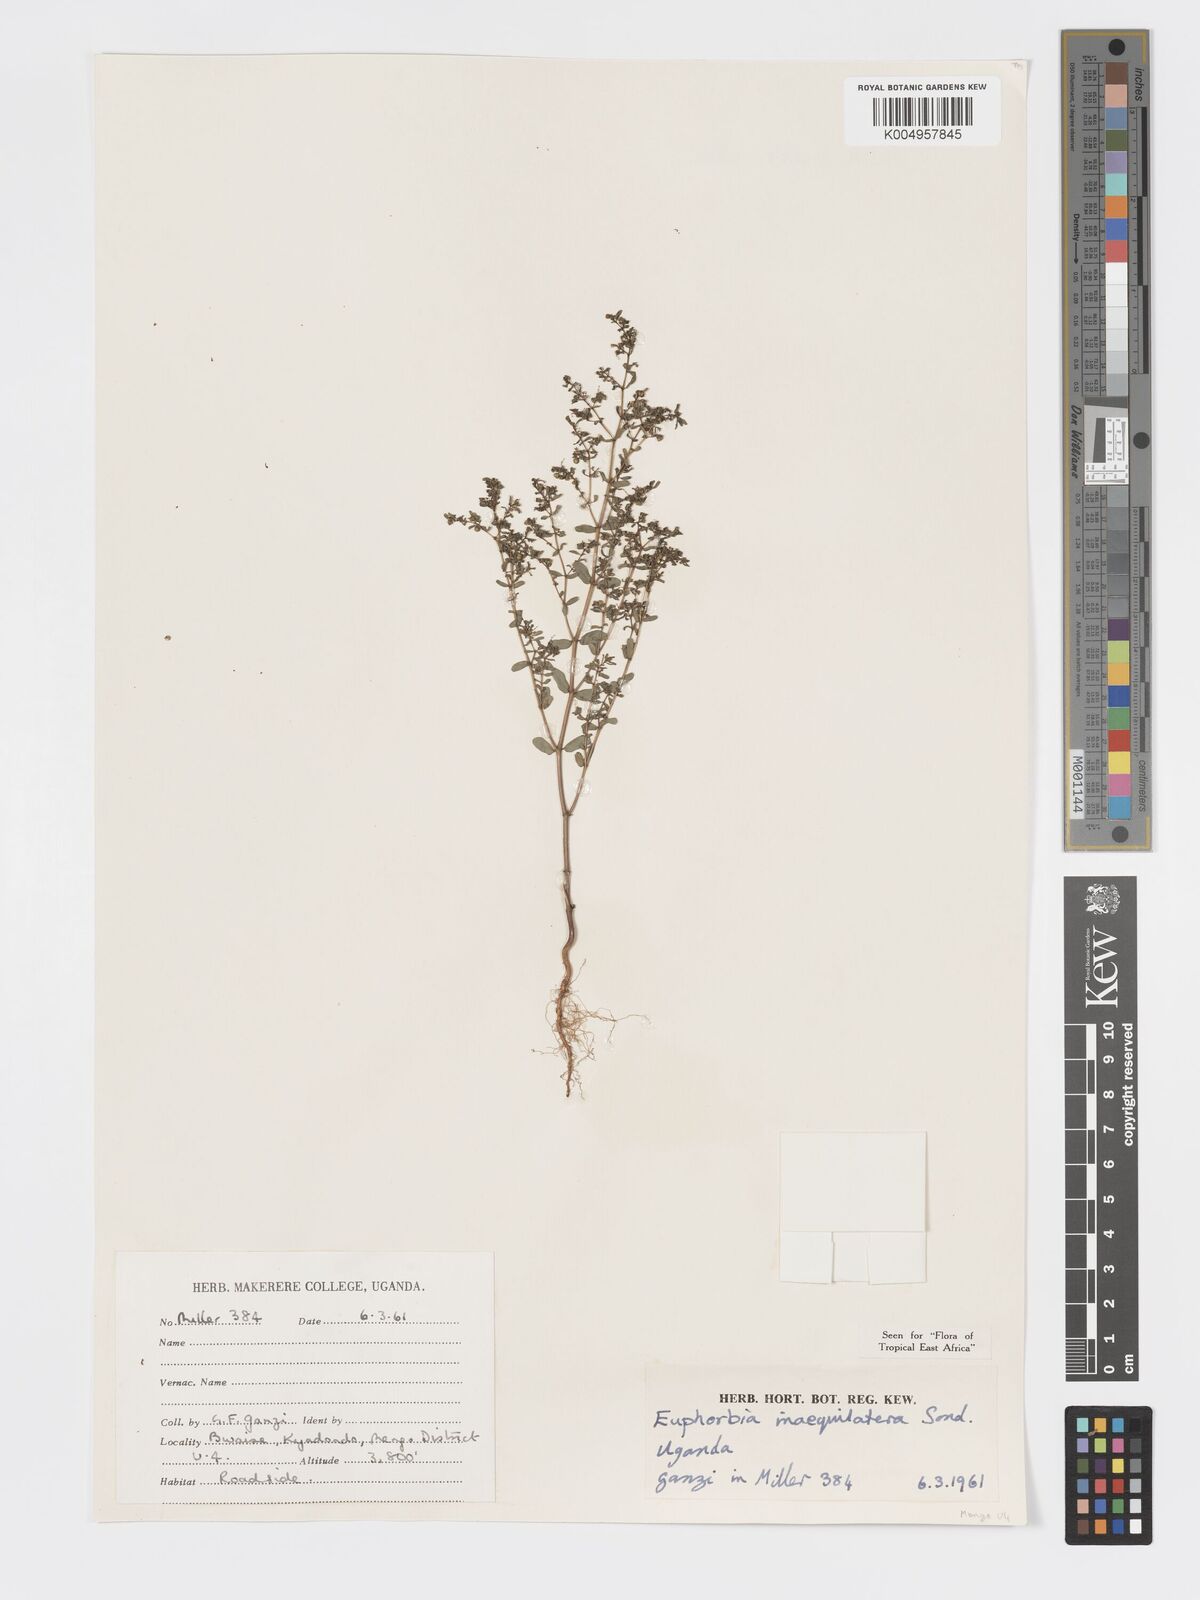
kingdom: Plantae
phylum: Tracheophyta
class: Magnoliopsida
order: Malpighiales
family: Euphorbiaceae
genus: Euphorbia
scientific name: Euphorbia inaequilatera
